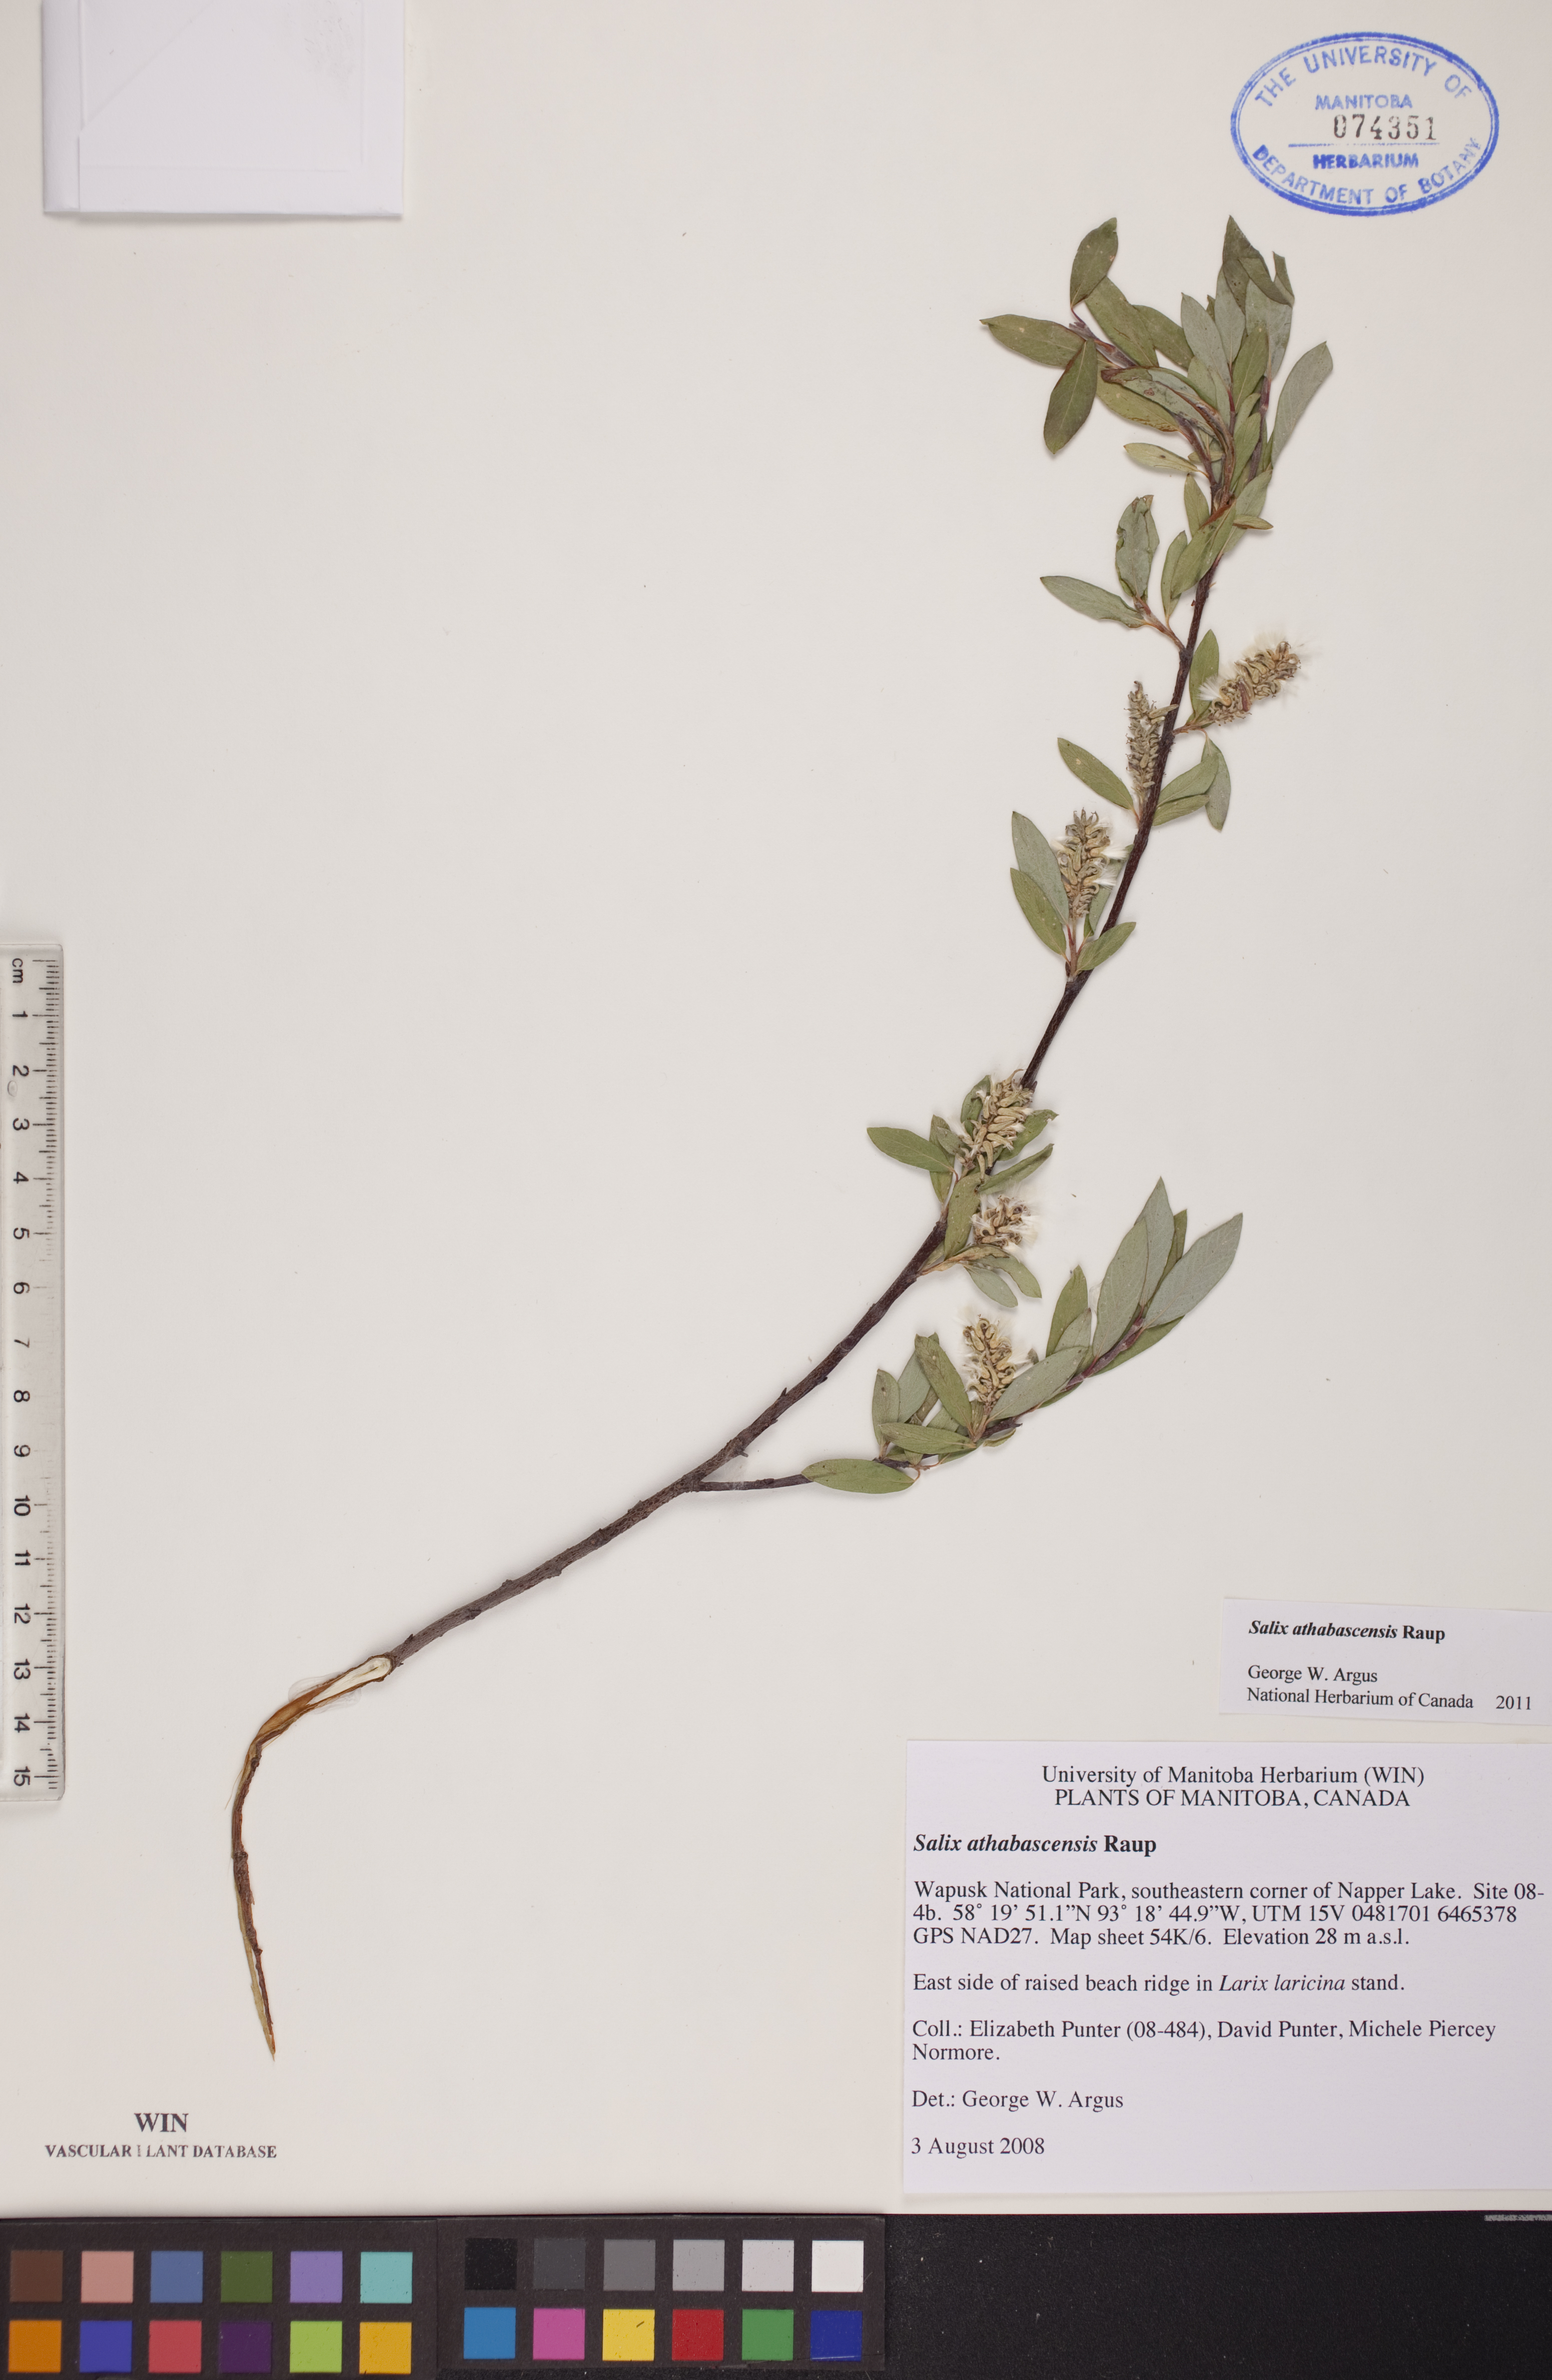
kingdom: Plantae
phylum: Tracheophyta
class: Magnoliopsida
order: Malpighiales
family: Salicaceae
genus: Salix
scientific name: Salix athabascensis
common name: Athabasca willow
